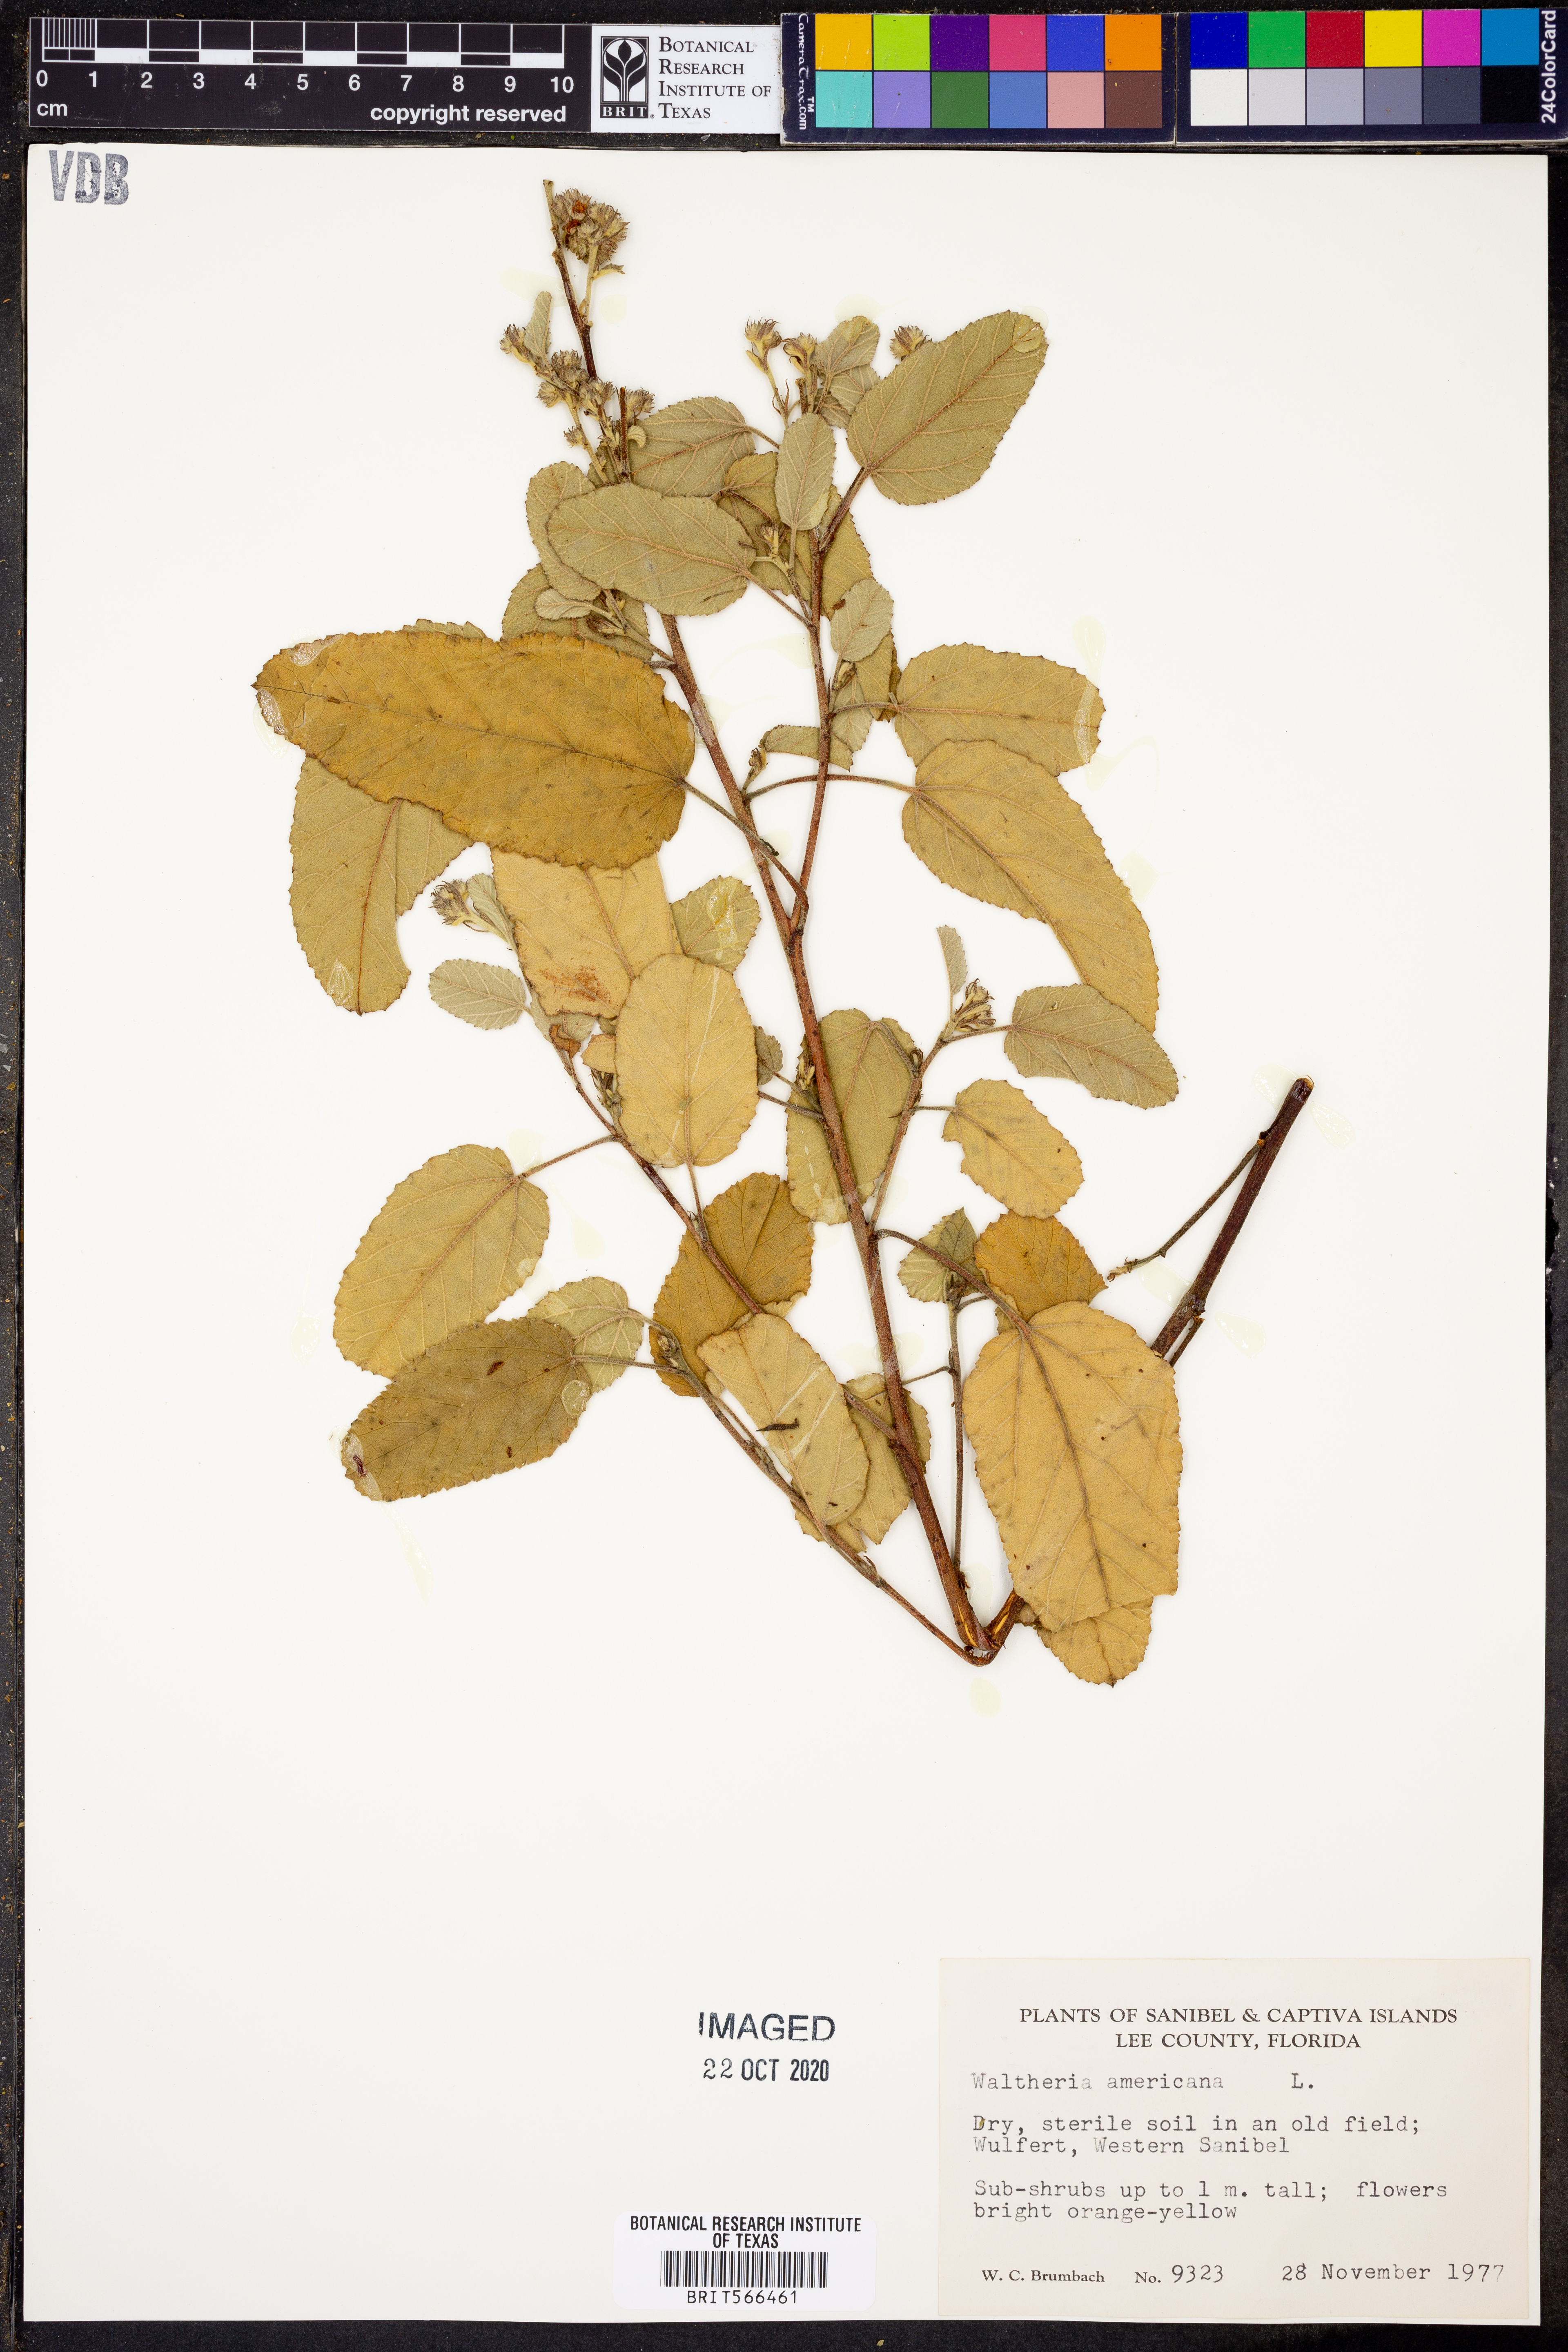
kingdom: Plantae
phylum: Tracheophyta
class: Magnoliopsida
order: Malvales
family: Malvaceae
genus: Waltheria
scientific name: Waltheria indica
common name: Leather-coat
